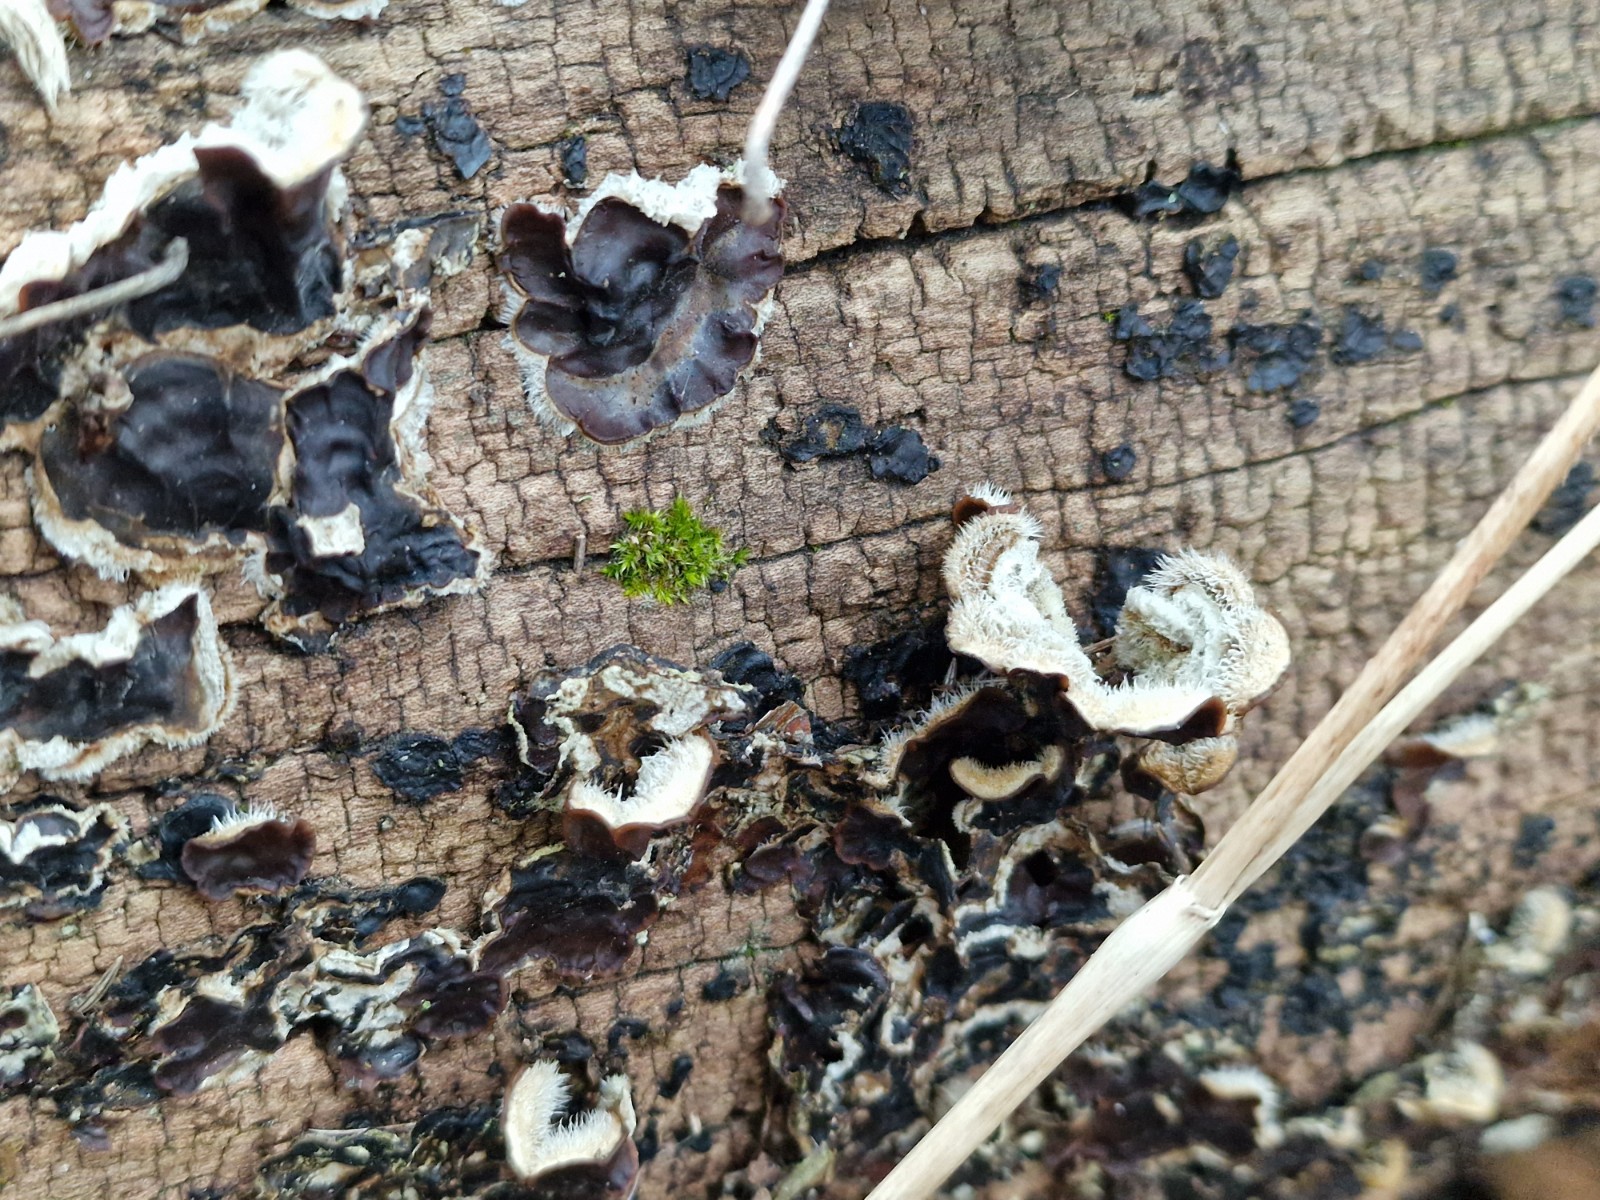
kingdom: Fungi
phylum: Basidiomycota
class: Agaricomycetes
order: Auriculariales
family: Auriculariaceae
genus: Auricularia
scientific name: Auricularia mesenterica
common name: håret judasøre
